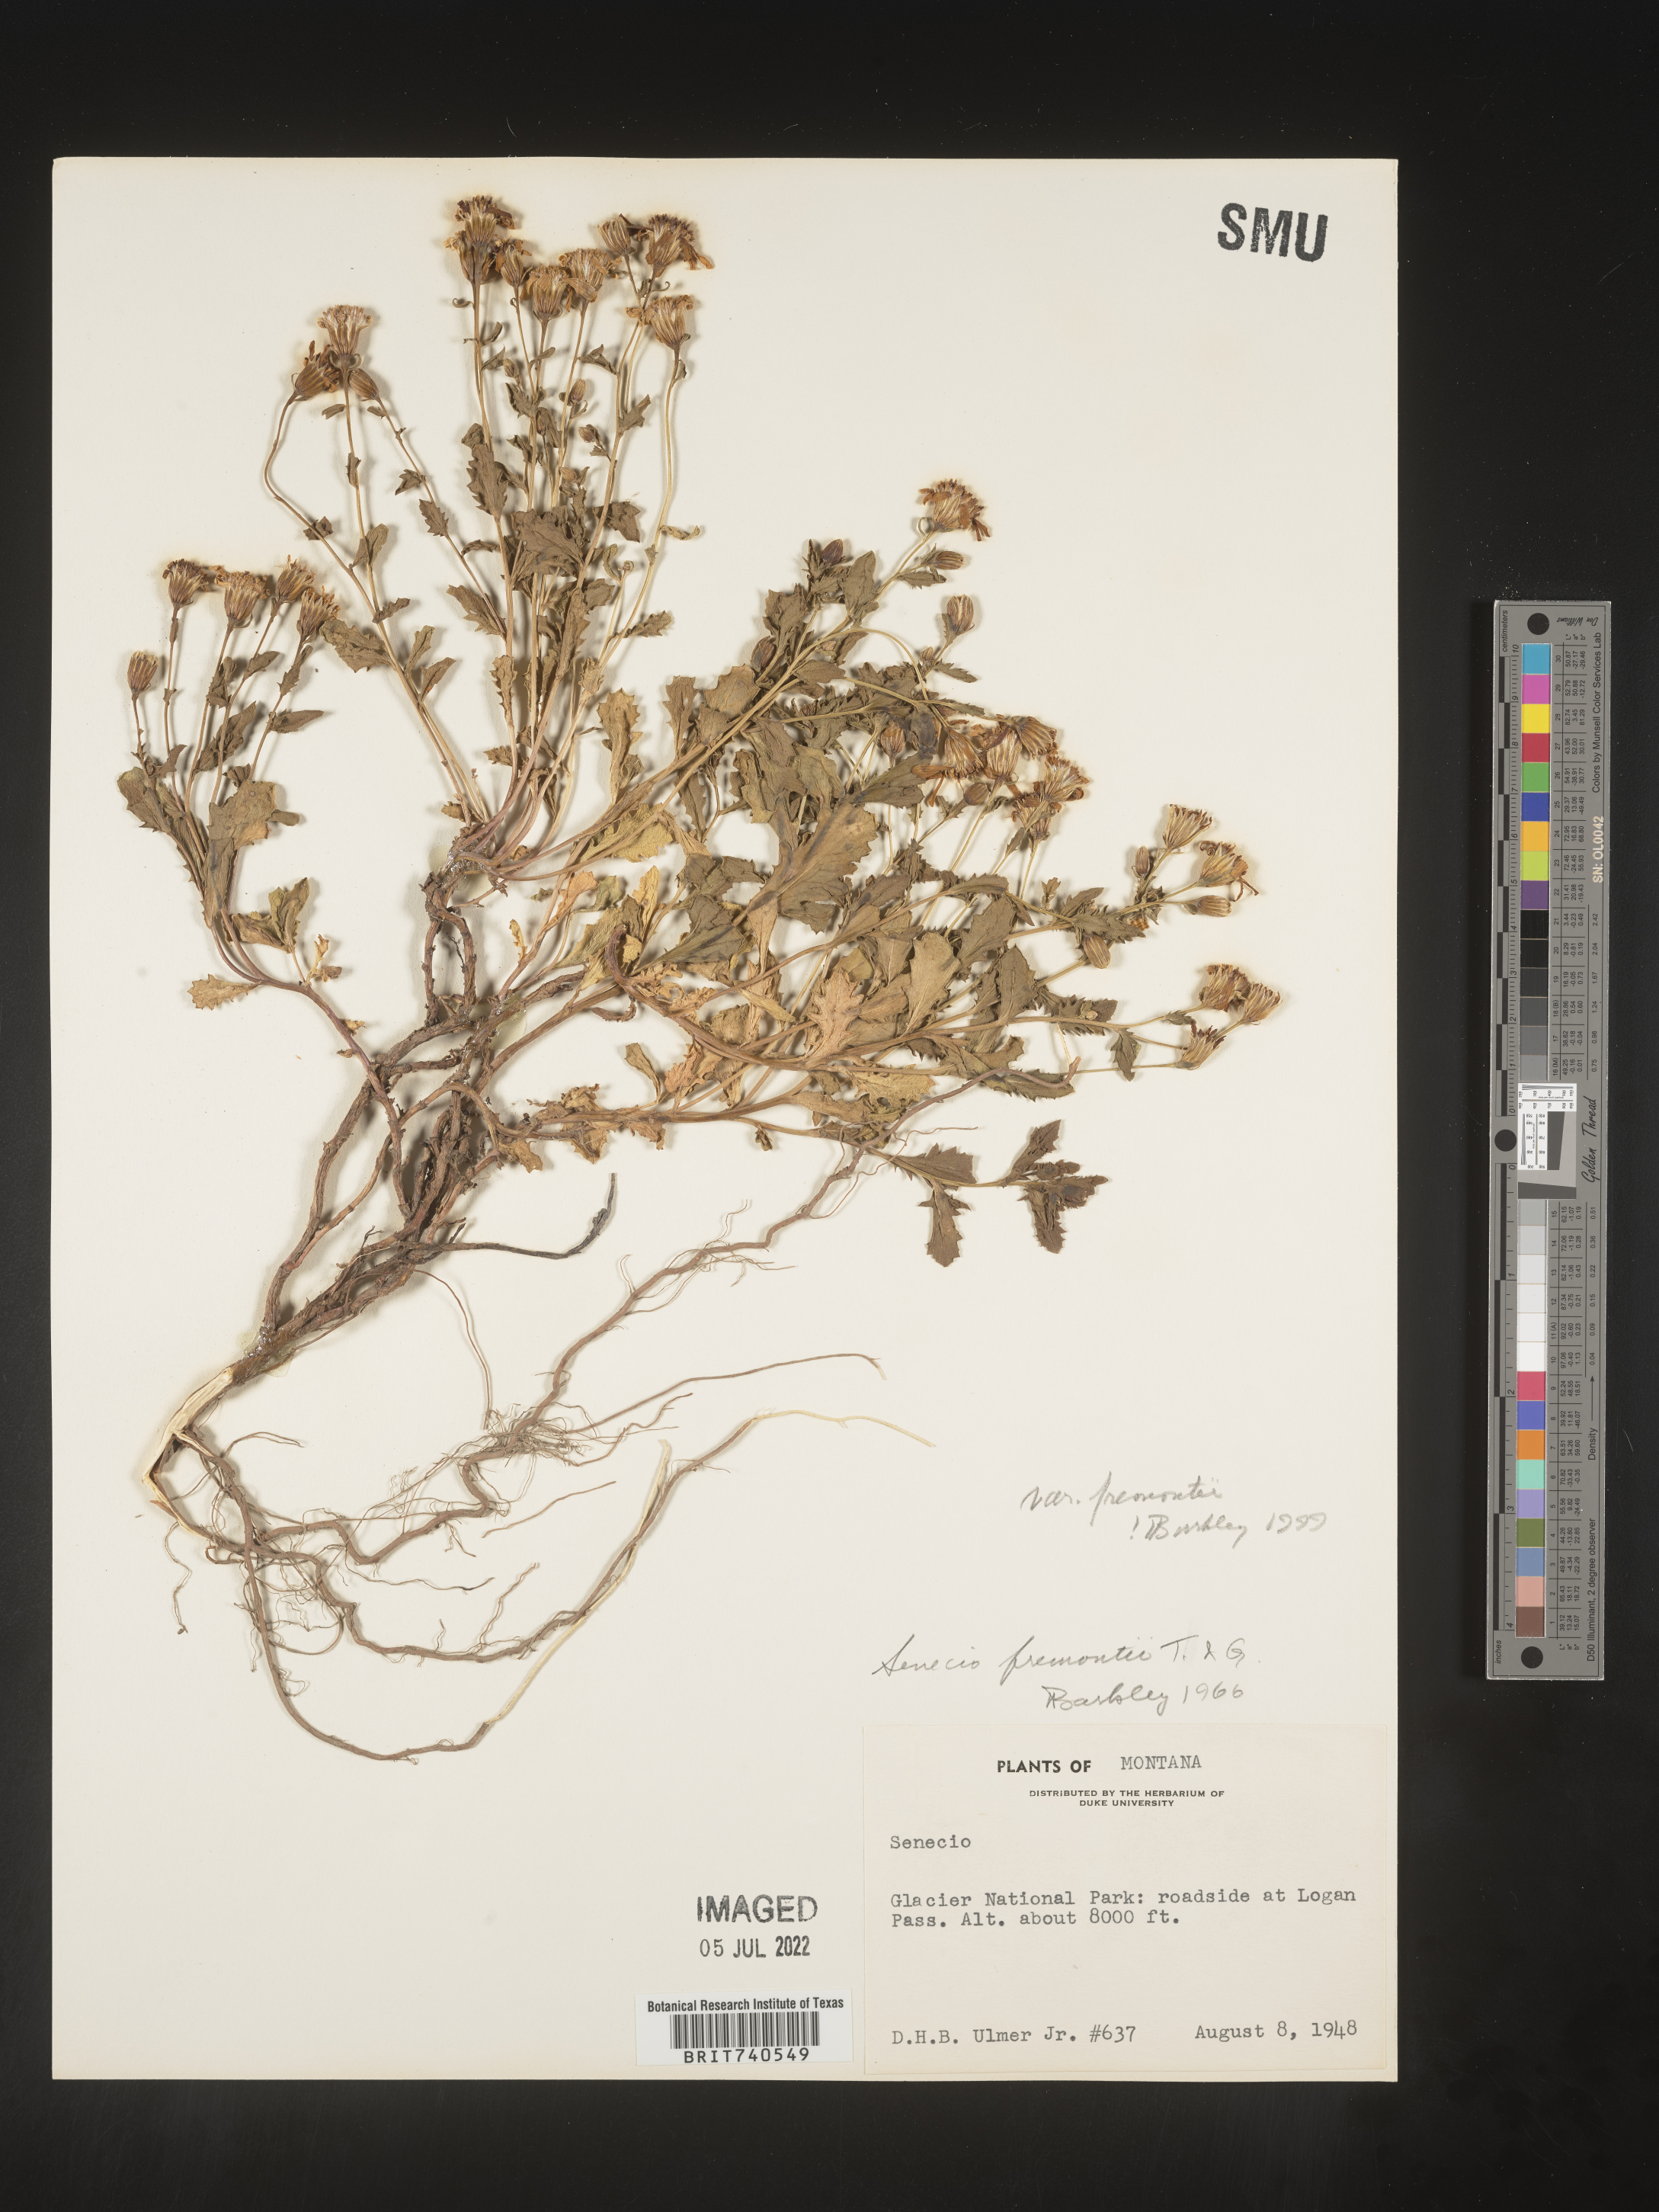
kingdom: Plantae
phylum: Tracheophyta
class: Magnoliopsida
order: Asterales
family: Asteraceae
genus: Senecio
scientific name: Senecio fremontii
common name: Fremont's groundsel
